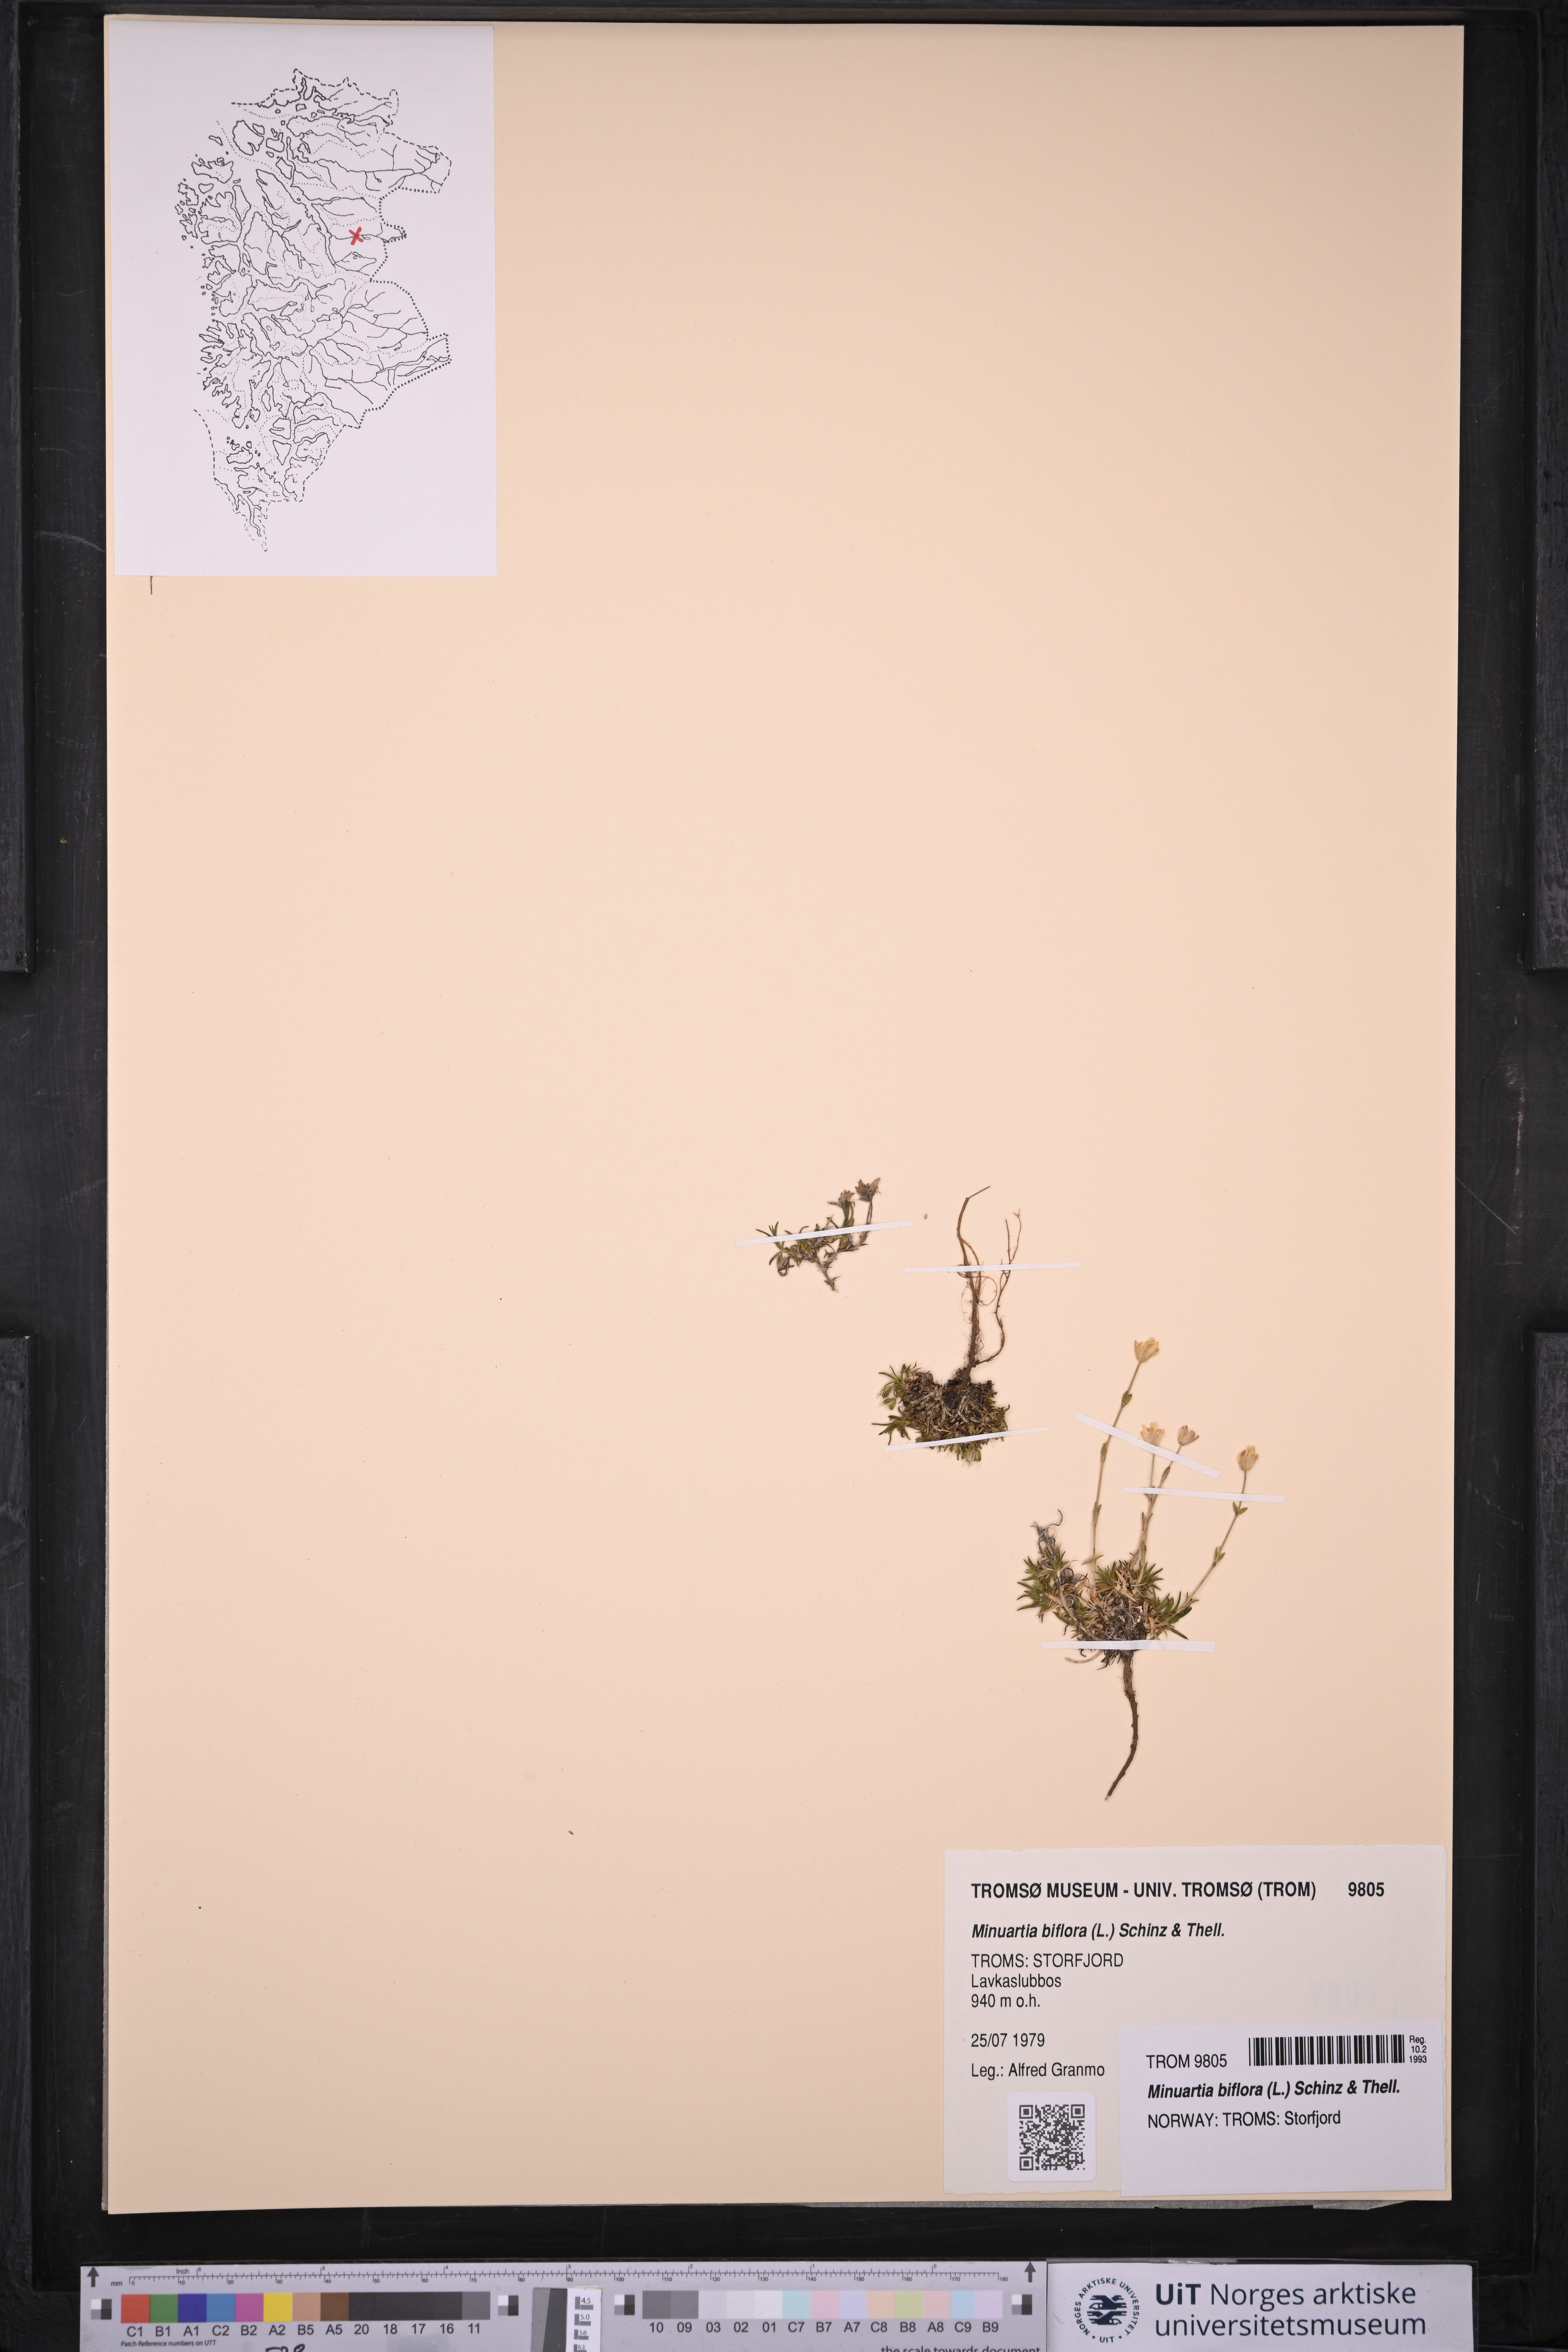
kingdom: Plantae
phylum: Tracheophyta
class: Magnoliopsida
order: Caryophyllales
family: Caryophyllaceae
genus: Cherleria
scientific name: Cherleria biflora
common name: Mountain sandwort
